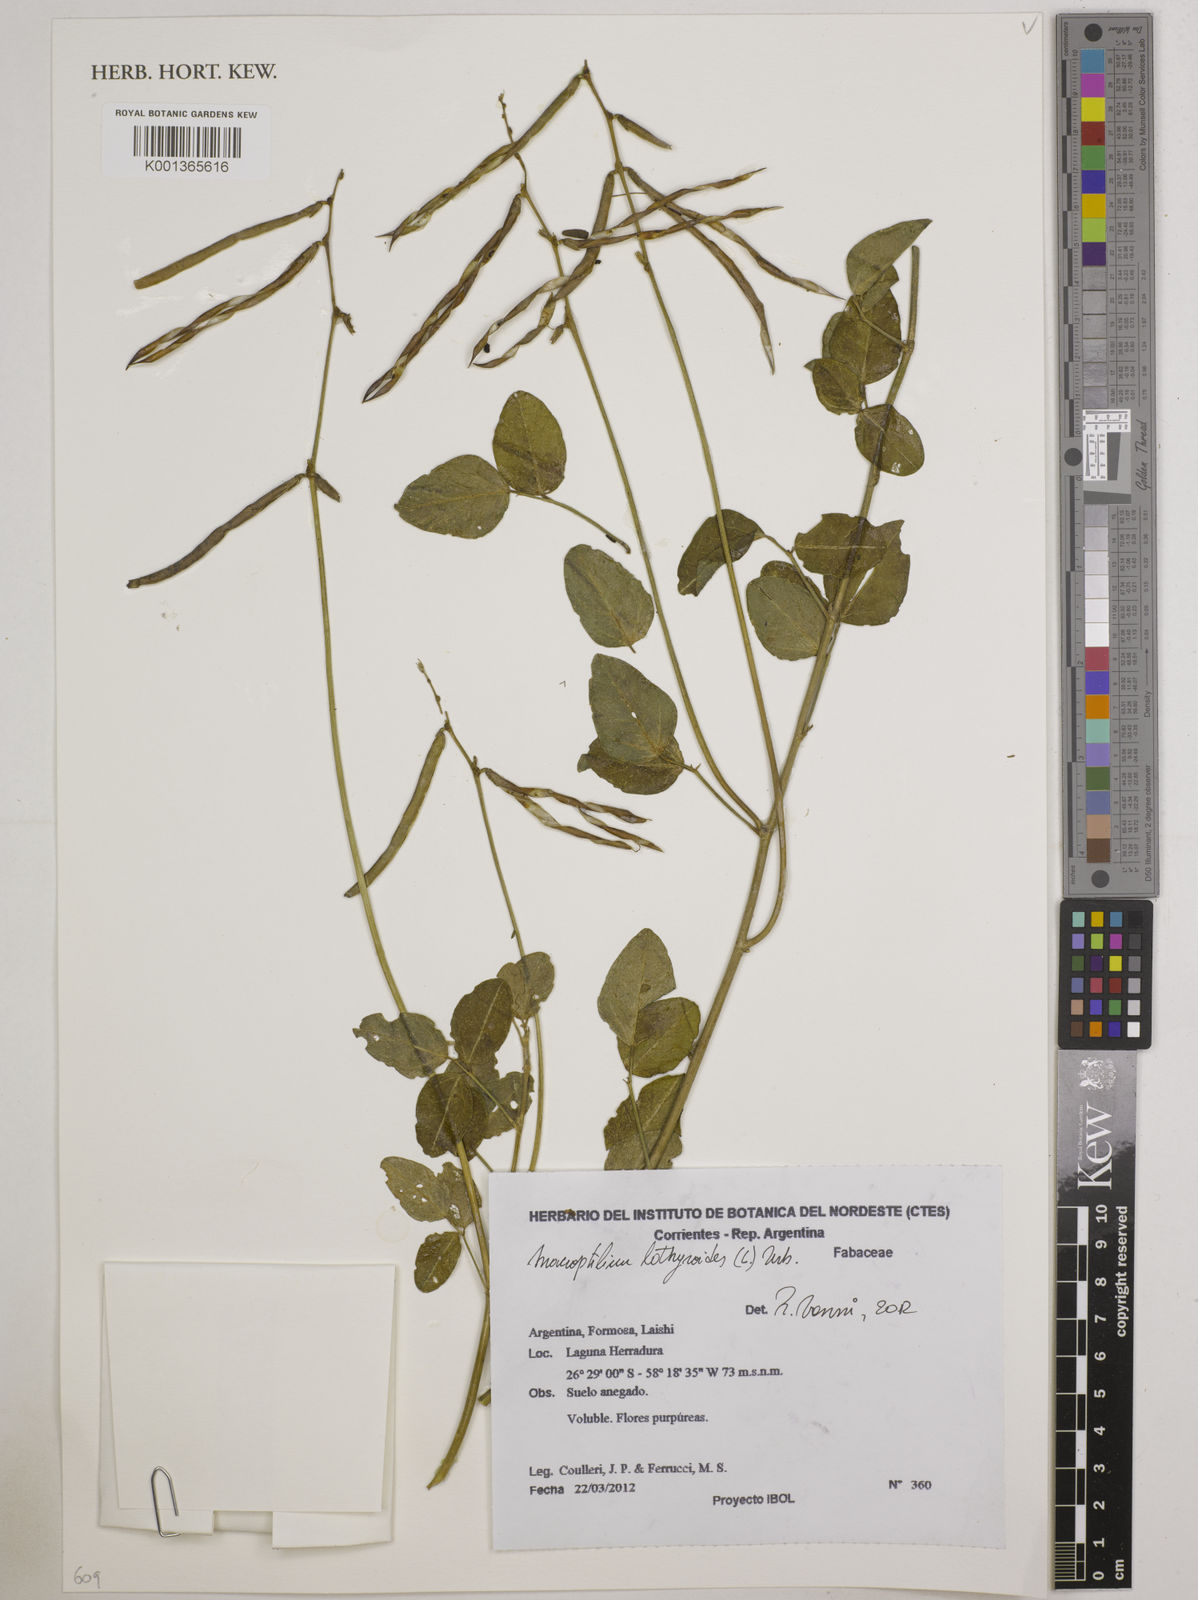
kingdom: Plantae
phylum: Tracheophyta
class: Magnoliopsida
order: Fabales
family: Fabaceae
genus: Macroptilium
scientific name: Macroptilium lathyroides
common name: Wild bushbean
